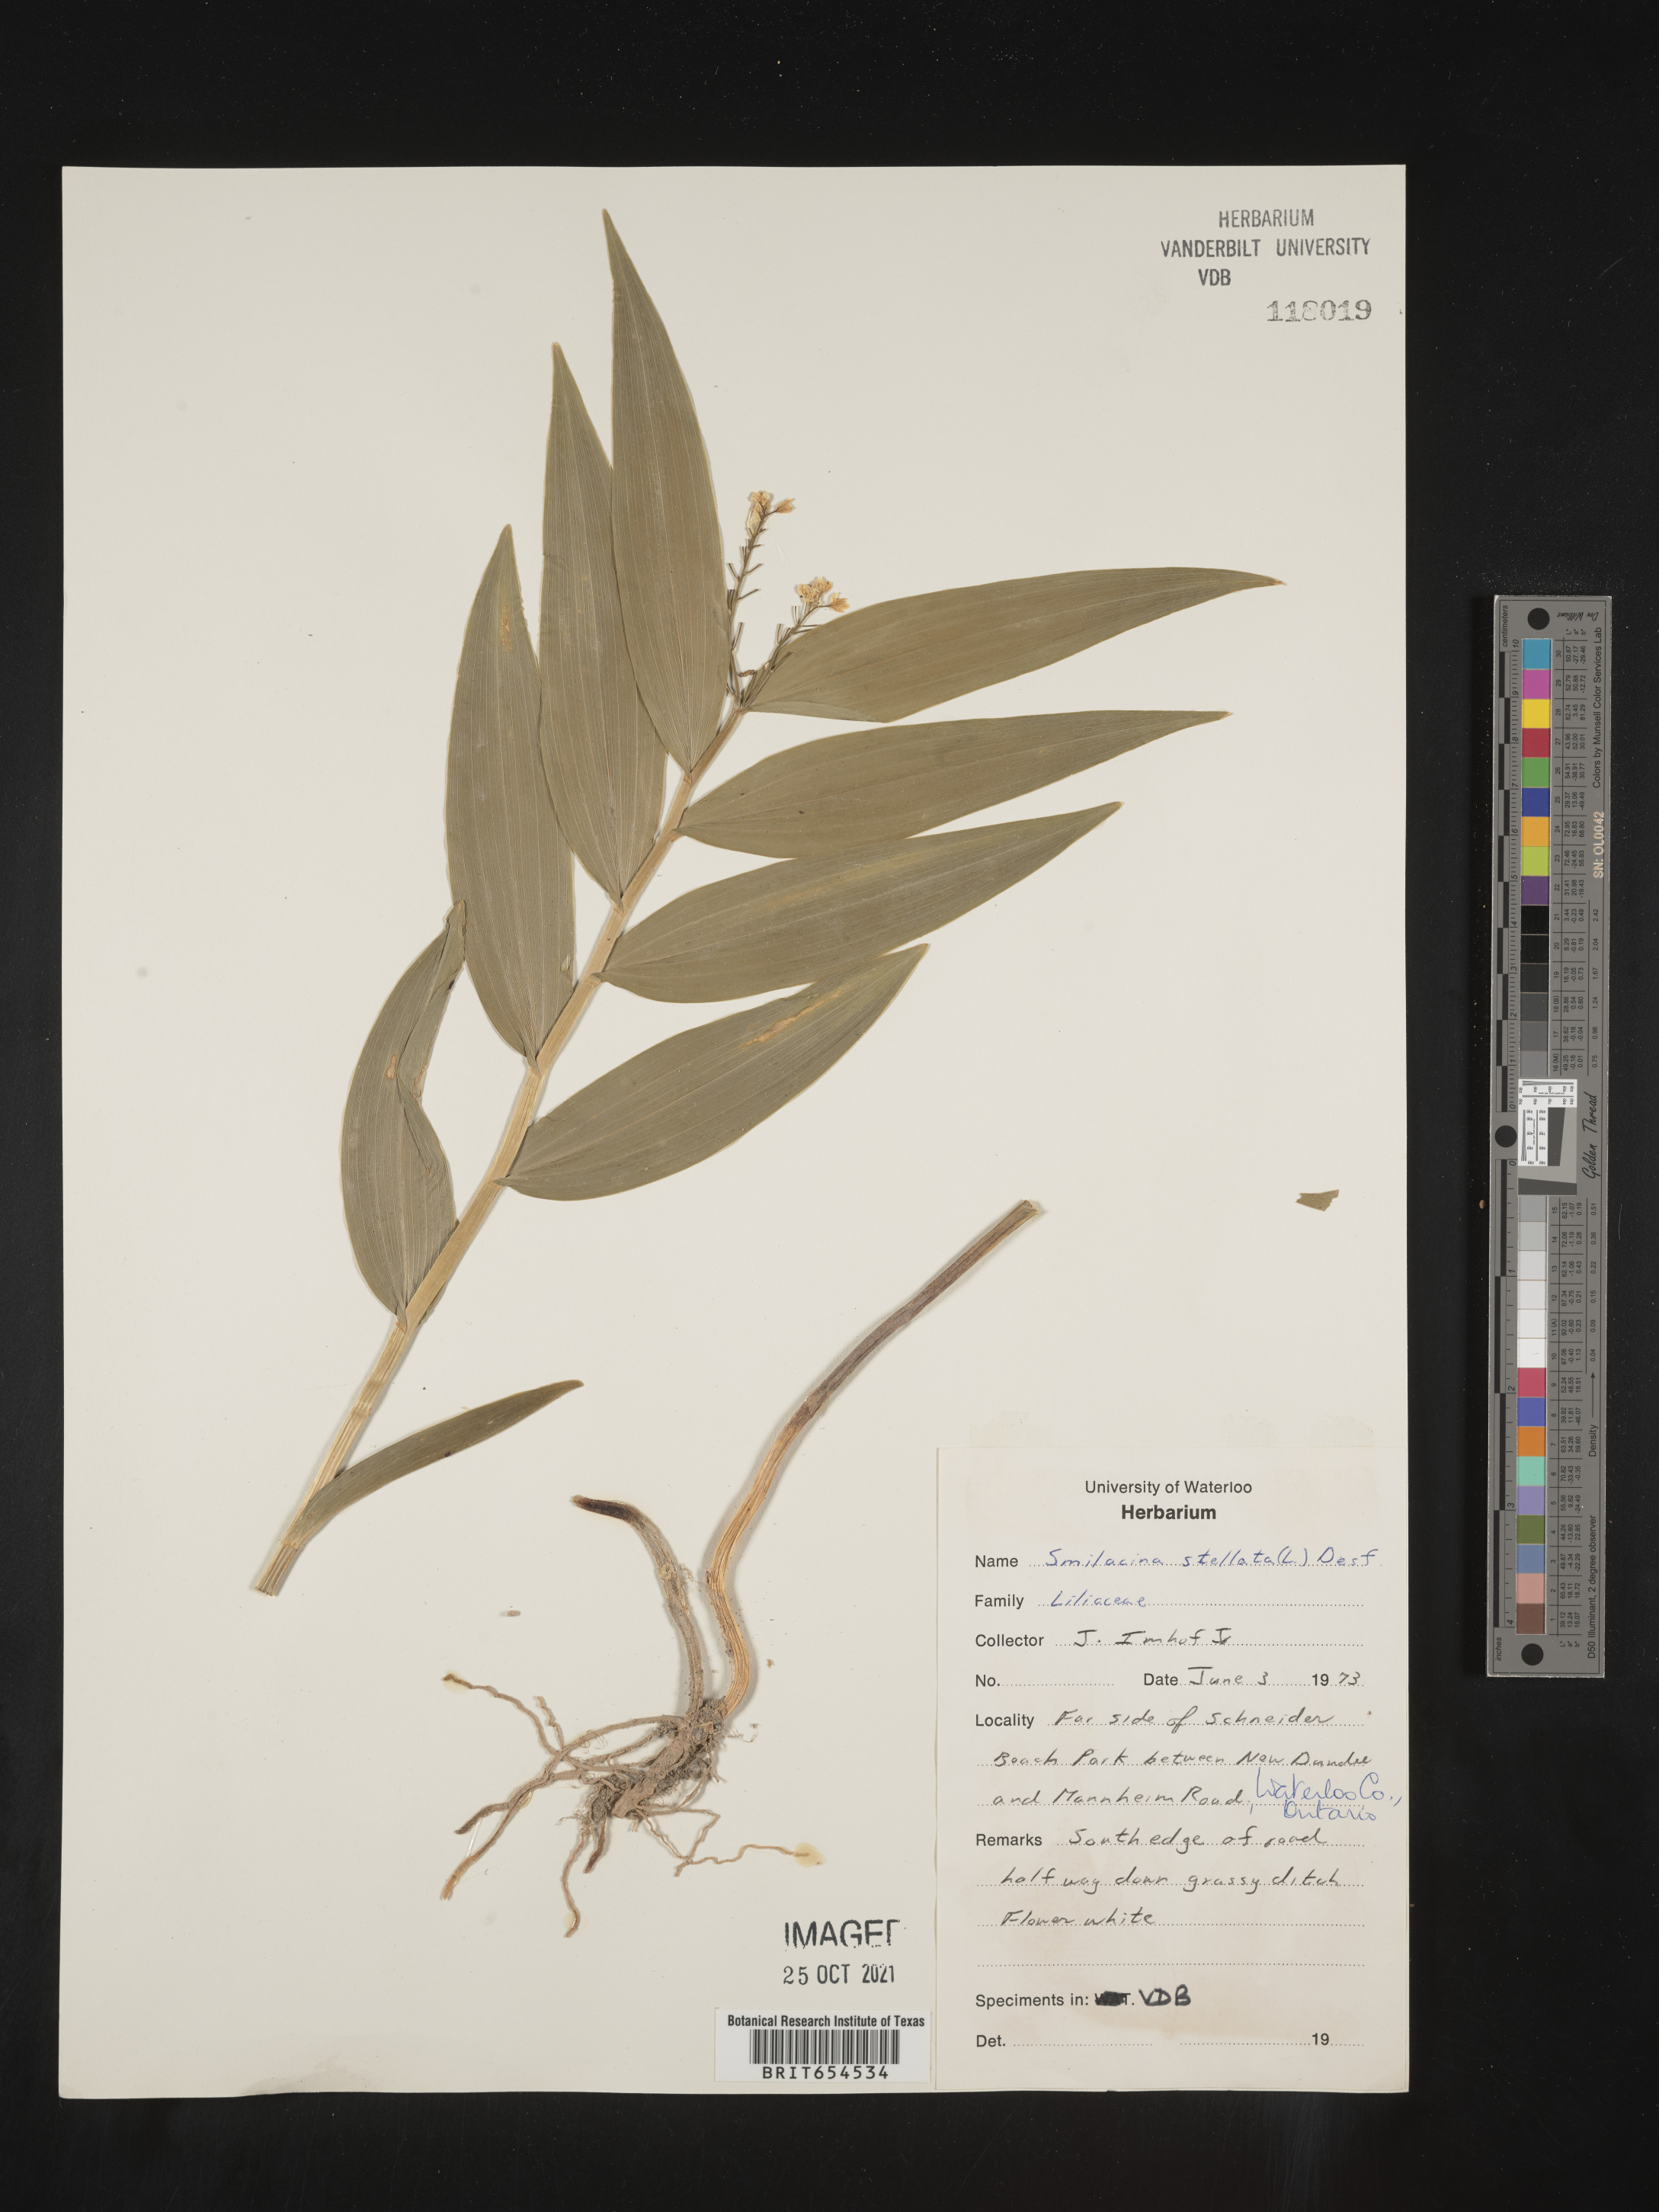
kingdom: Plantae
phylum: Tracheophyta
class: Liliopsida
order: Asparagales
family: Asparagaceae
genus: Maianthemum
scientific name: Maianthemum stellatum
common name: Little false solomon's seal
